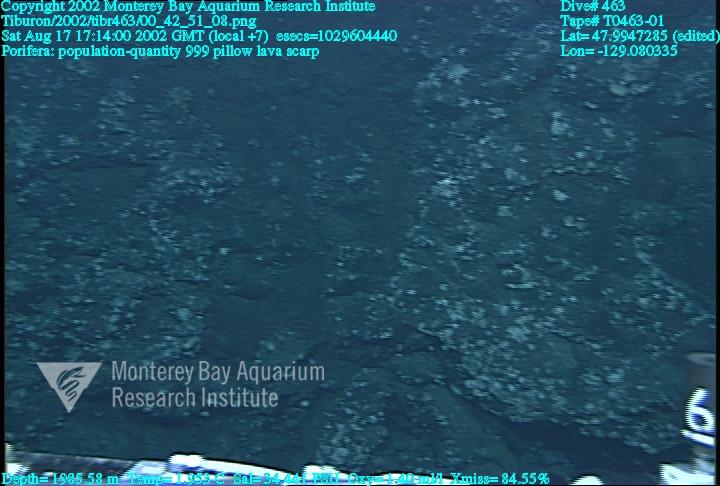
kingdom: Animalia
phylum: Porifera
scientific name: Porifera
